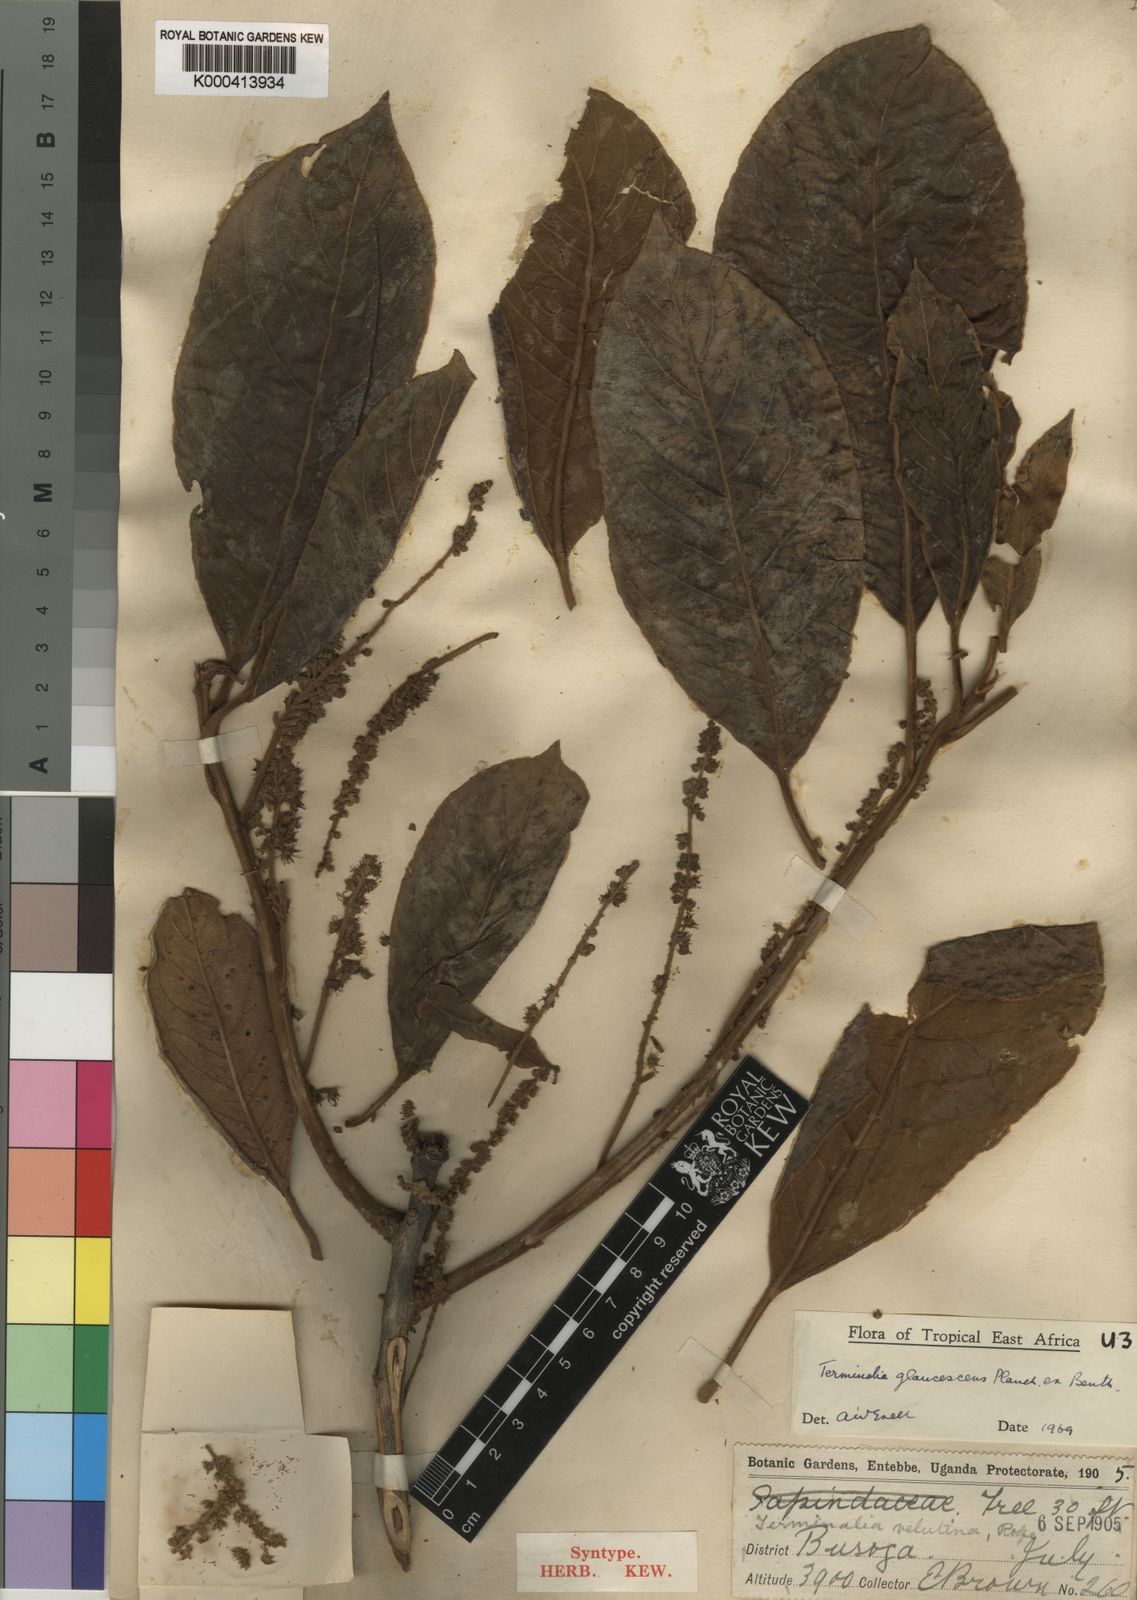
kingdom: Plantae
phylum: Tracheophyta
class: Magnoliopsida
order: Myrtales
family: Combretaceae
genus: Terminalia
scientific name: Terminalia schimperiana
